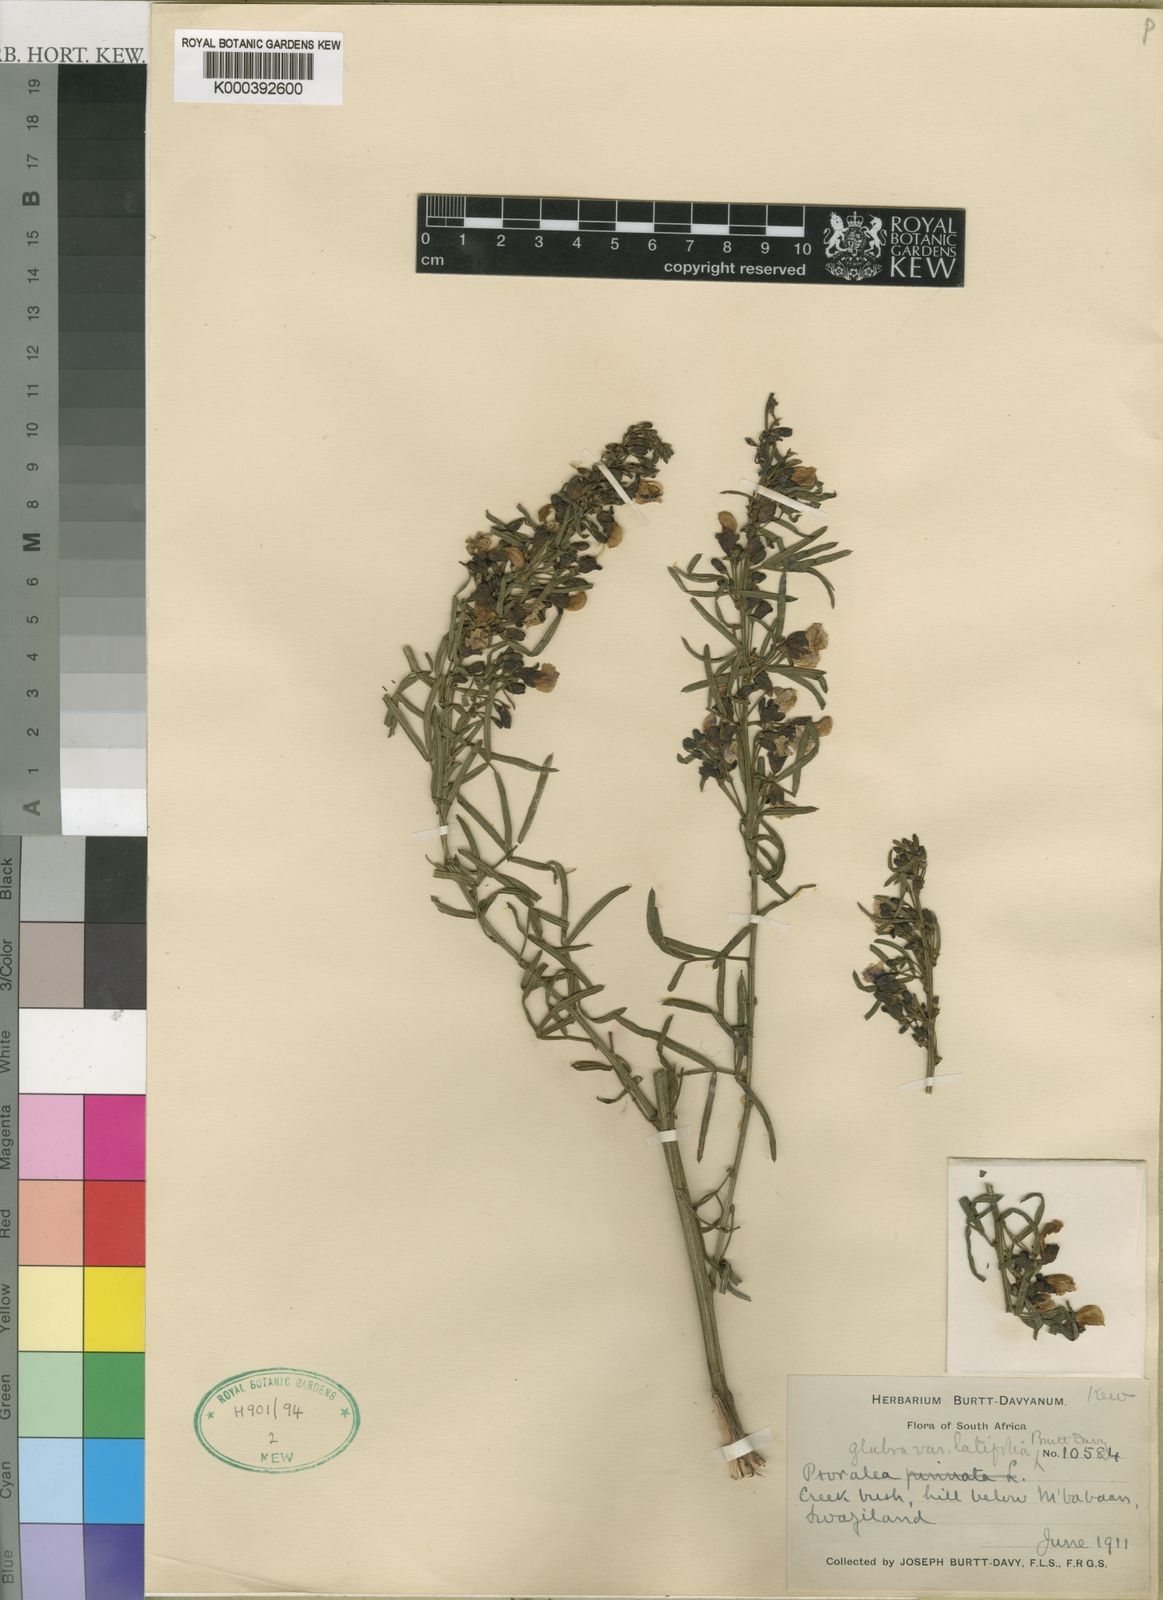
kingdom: Plantae
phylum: Tracheophyta
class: Magnoliopsida
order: Fabales
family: Fabaceae
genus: Psoralea
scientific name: Psoralea glabra
